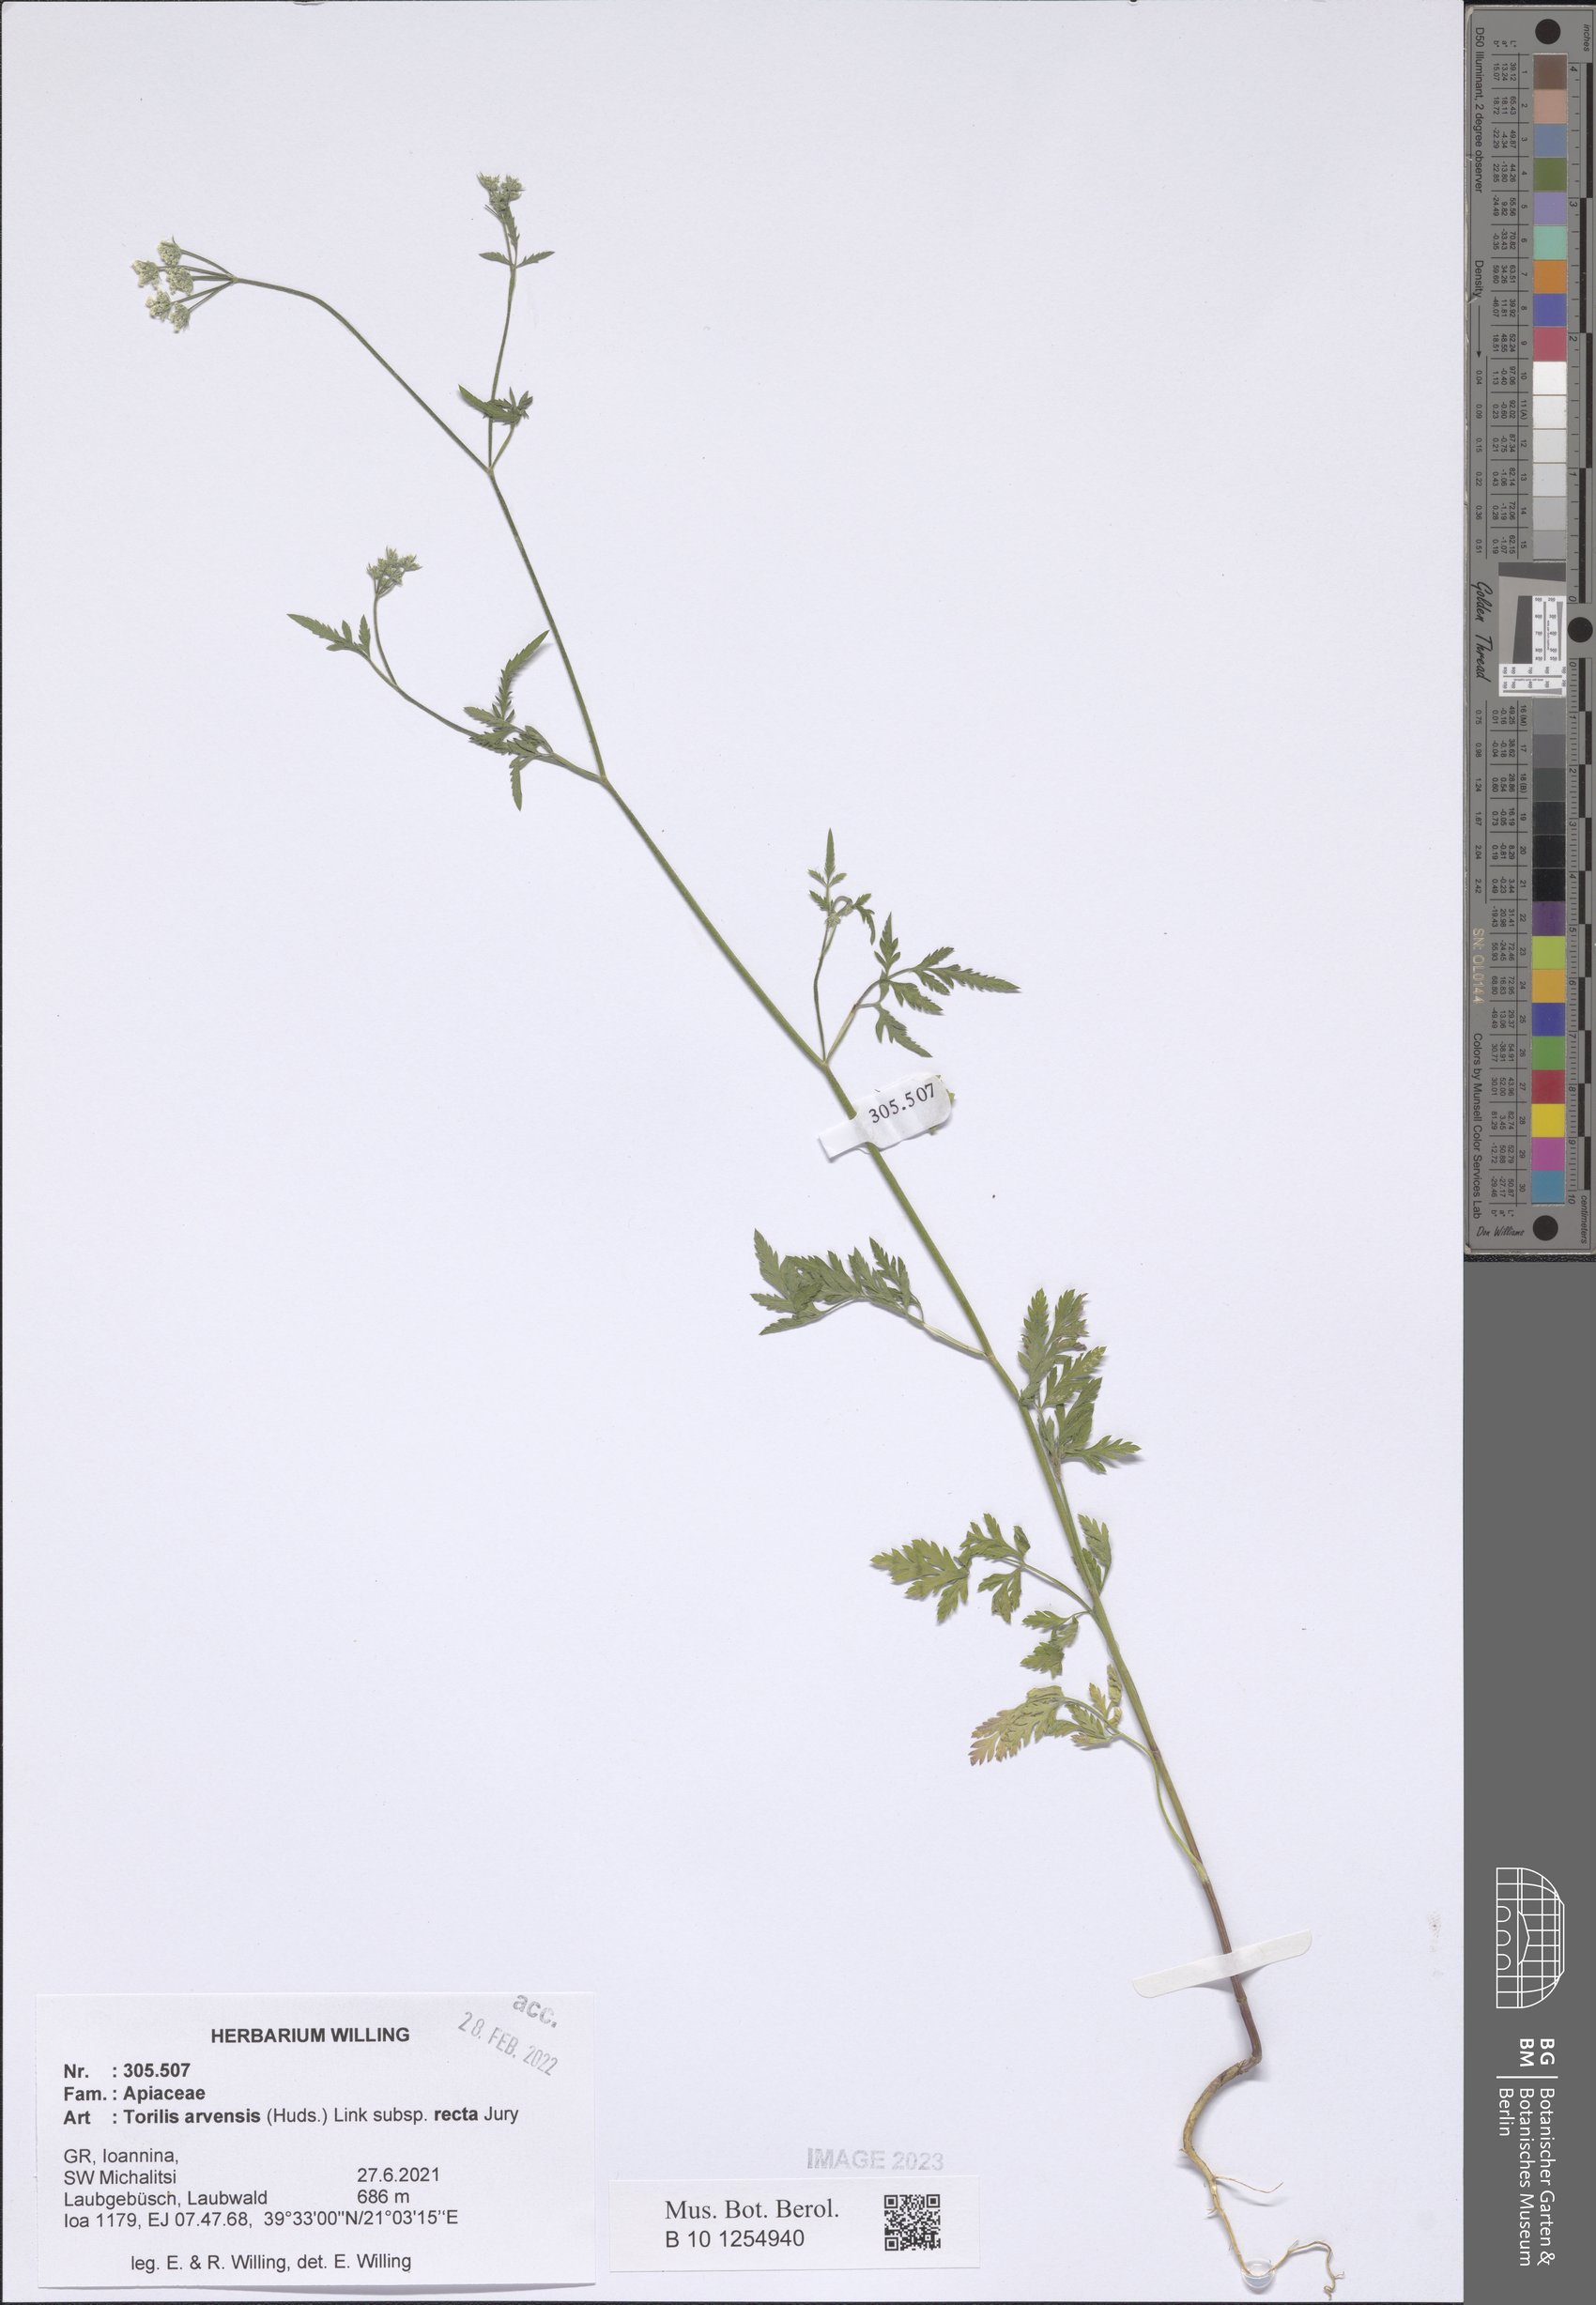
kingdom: Plantae
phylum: Tracheophyta
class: Magnoliopsida
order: Apiales
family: Apiaceae
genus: Torilis
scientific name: Torilis arvensis
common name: Spreading hedge-parsley
